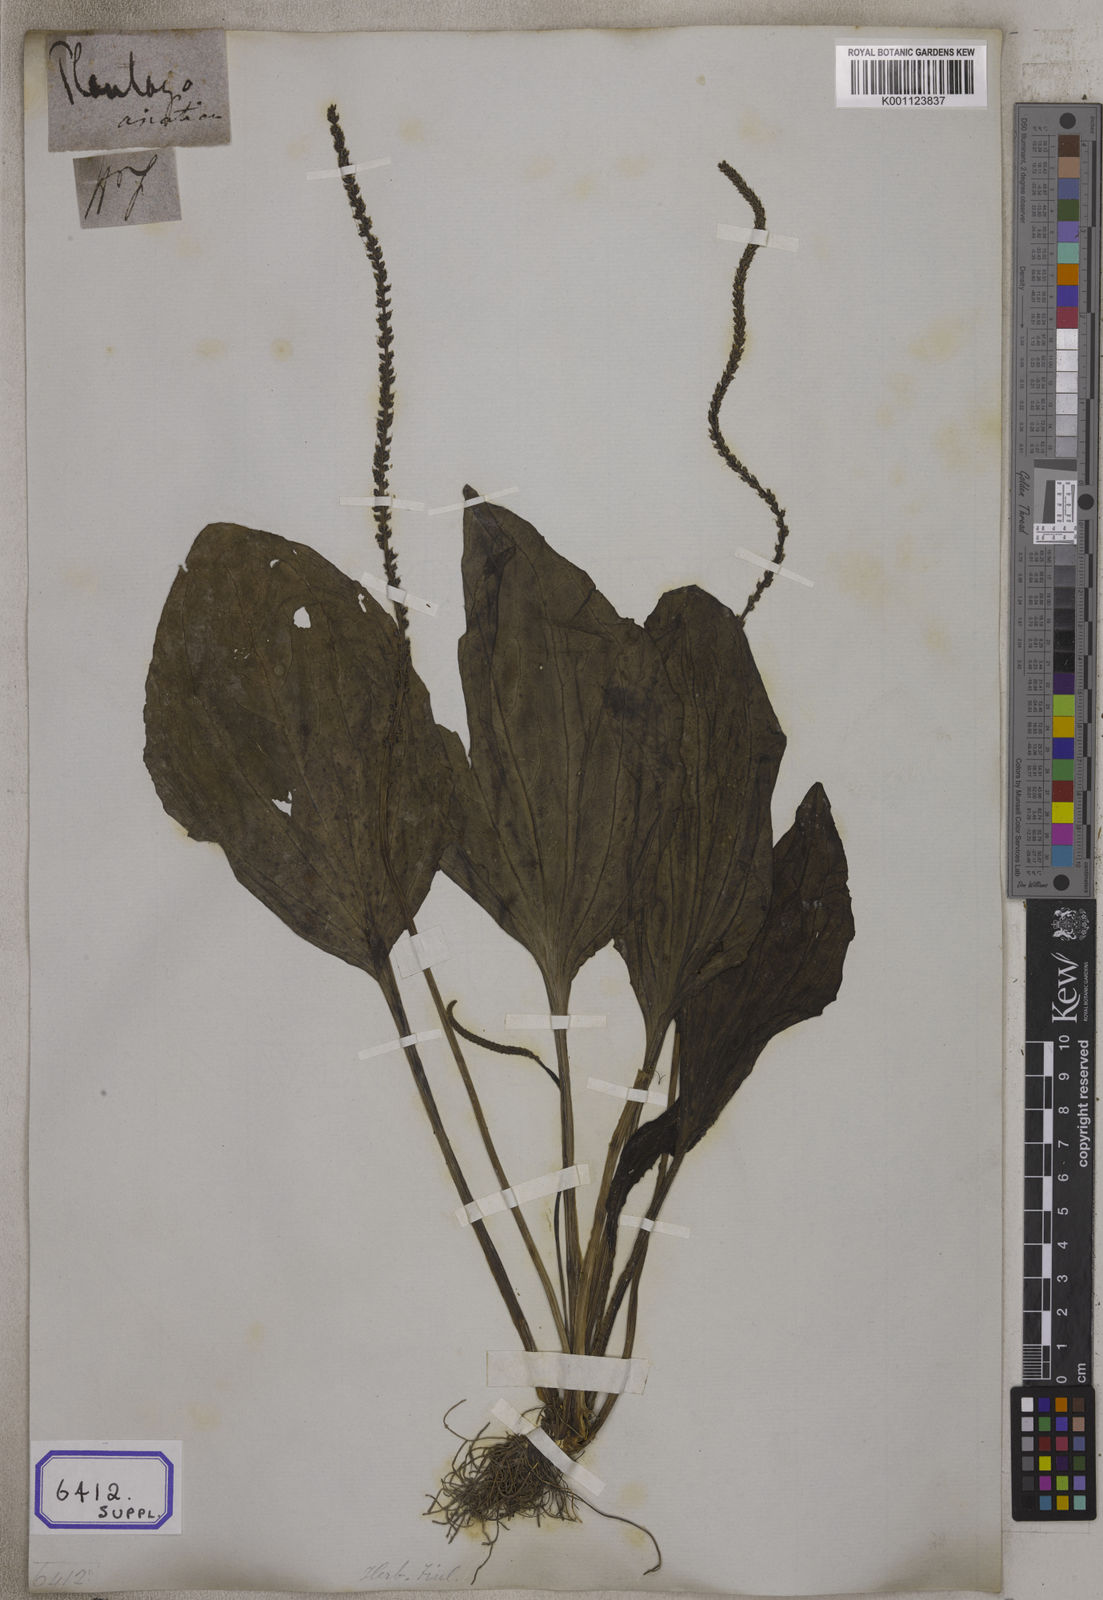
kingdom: Plantae
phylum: Tracheophyta
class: Magnoliopsida
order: Lamiales
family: Plantaginaceae
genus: Plantago
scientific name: Plantago
